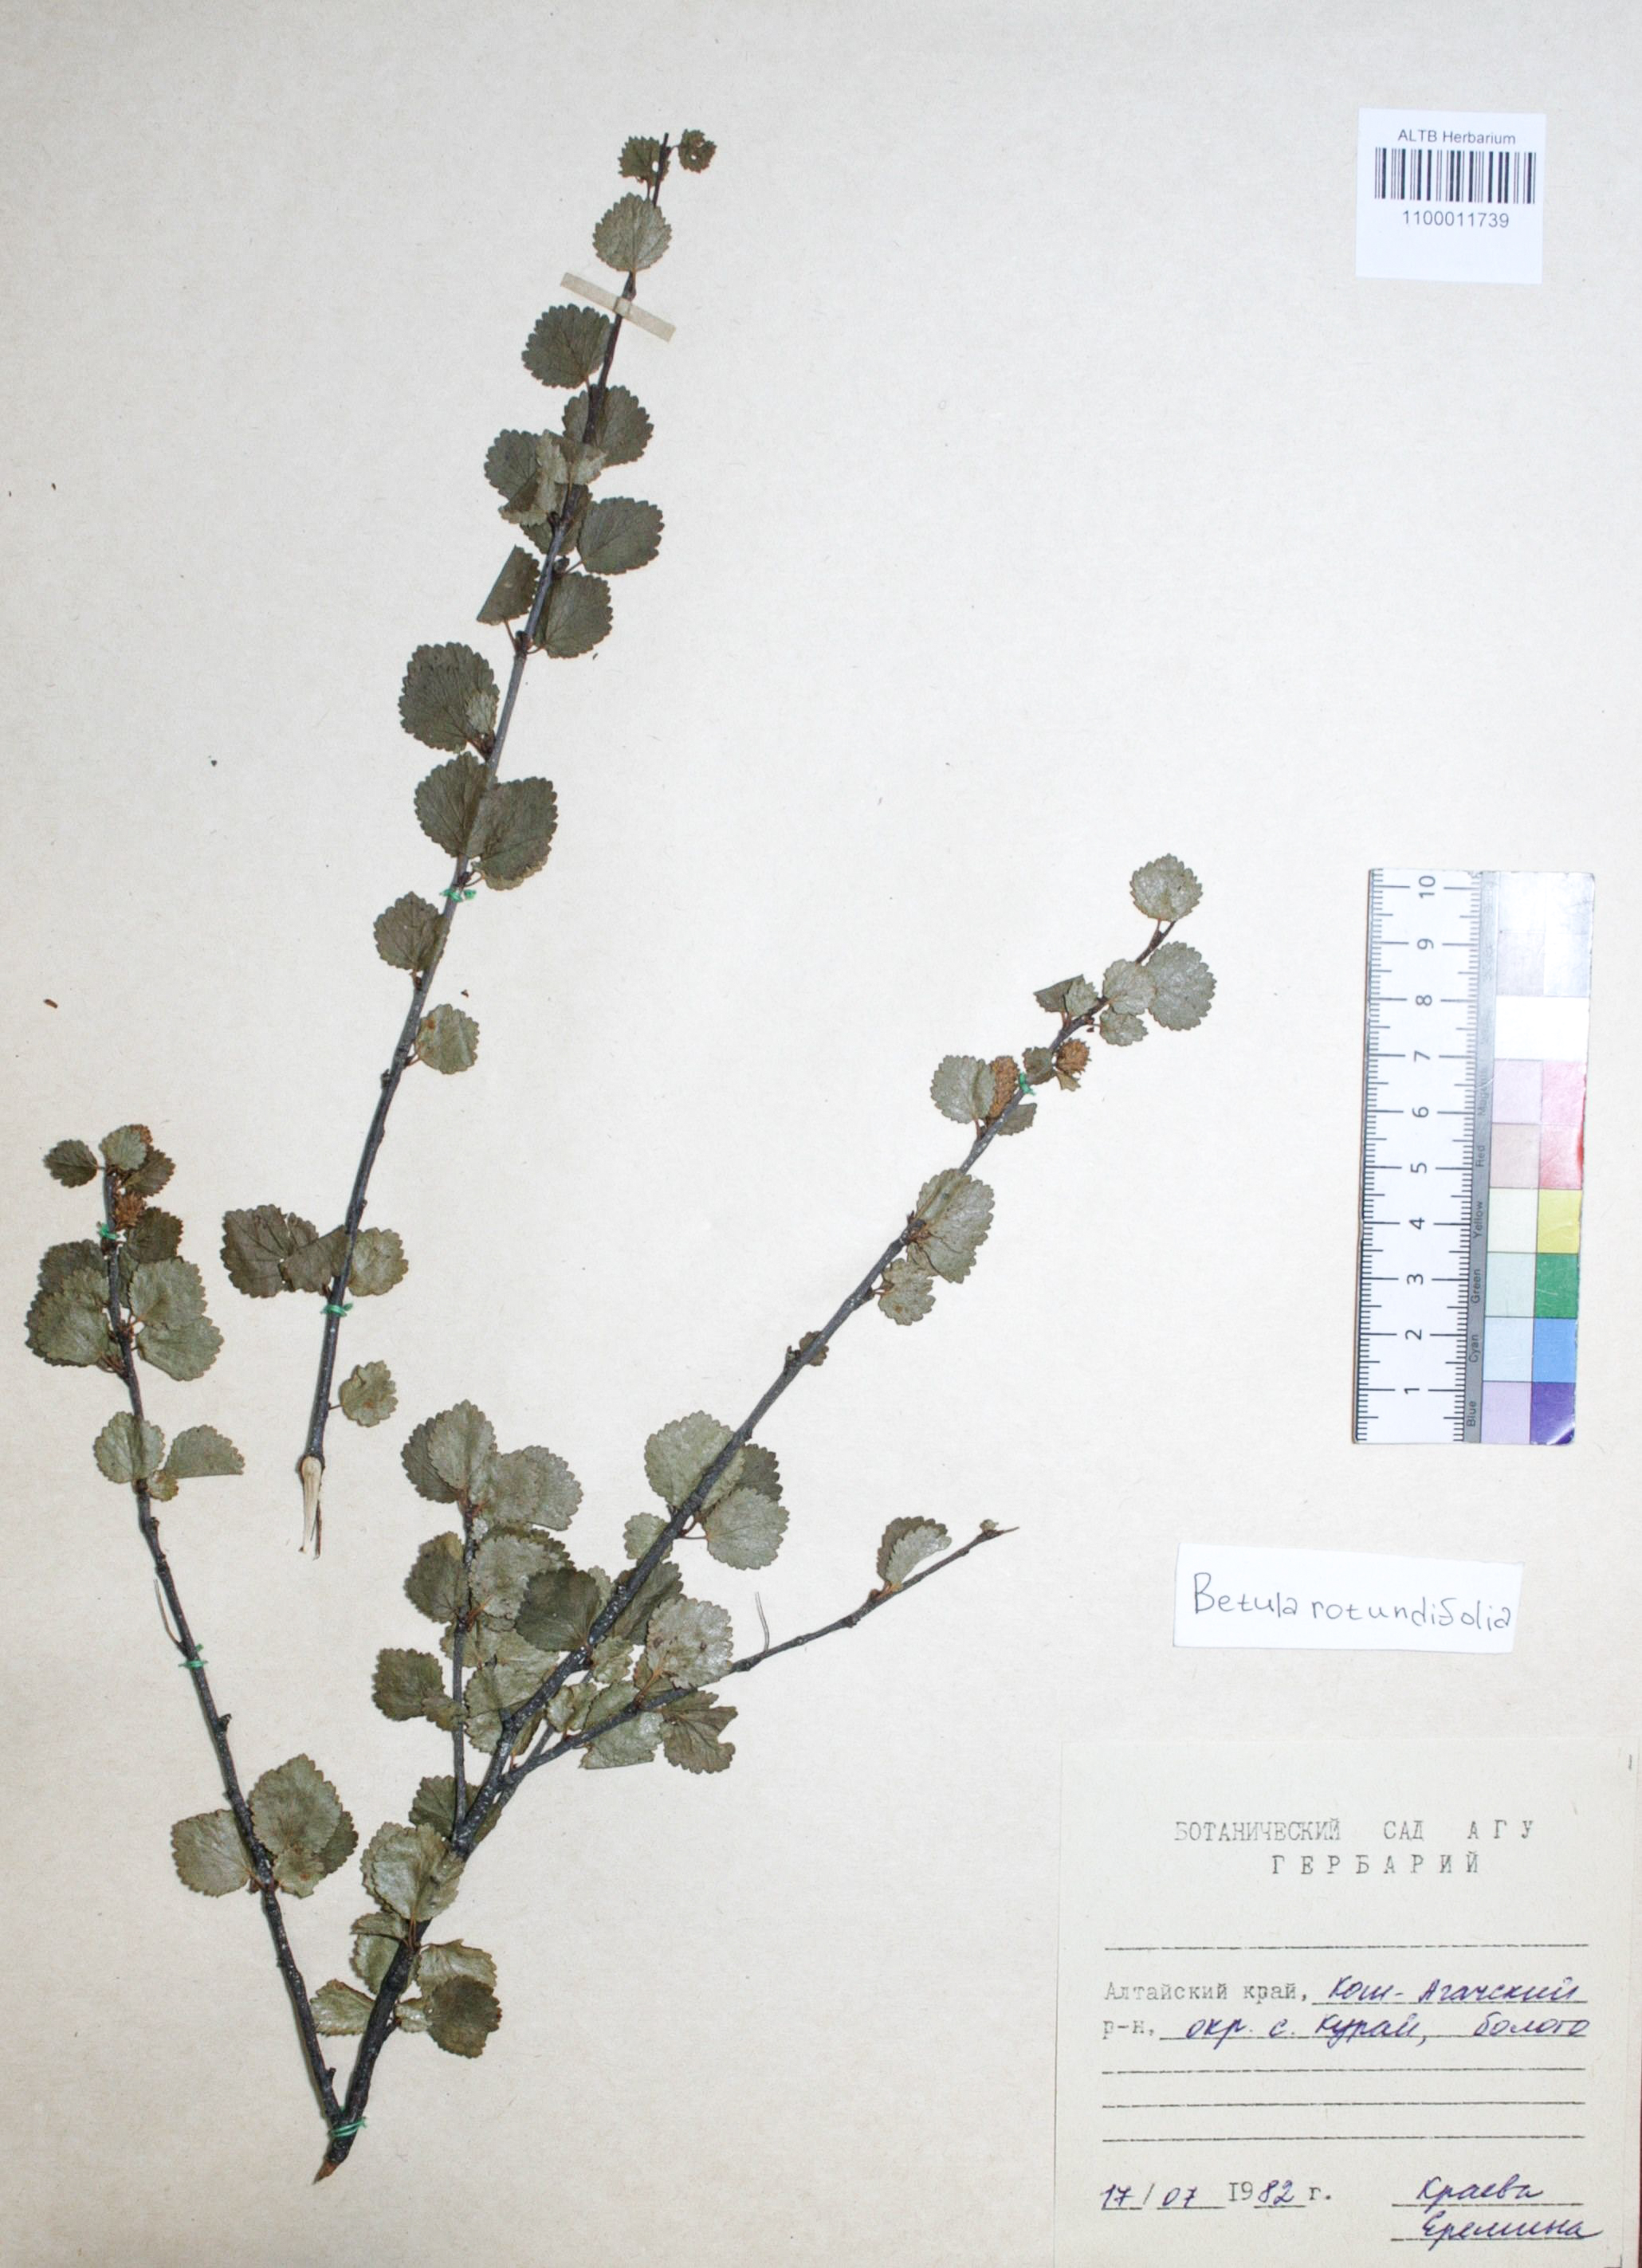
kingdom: Plantae
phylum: Tracheophyta
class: Magnoliopsida
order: Fagales
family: Betulaceae
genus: Betula
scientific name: Betula glandulosa
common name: Dwarf birch
